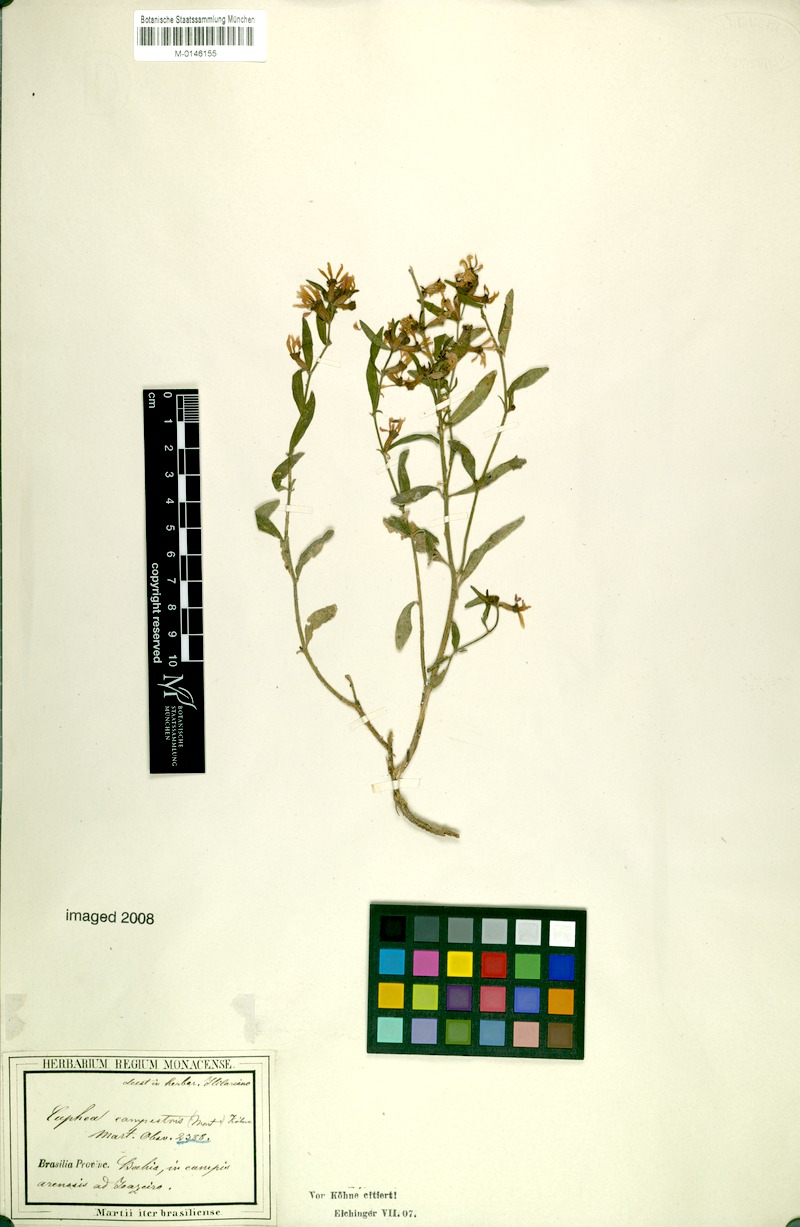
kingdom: Plantae
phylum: Tracheophyta
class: Magnoliopsida
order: Myrtales
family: Lythraceae
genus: Cuphea
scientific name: Cuphea campestris
